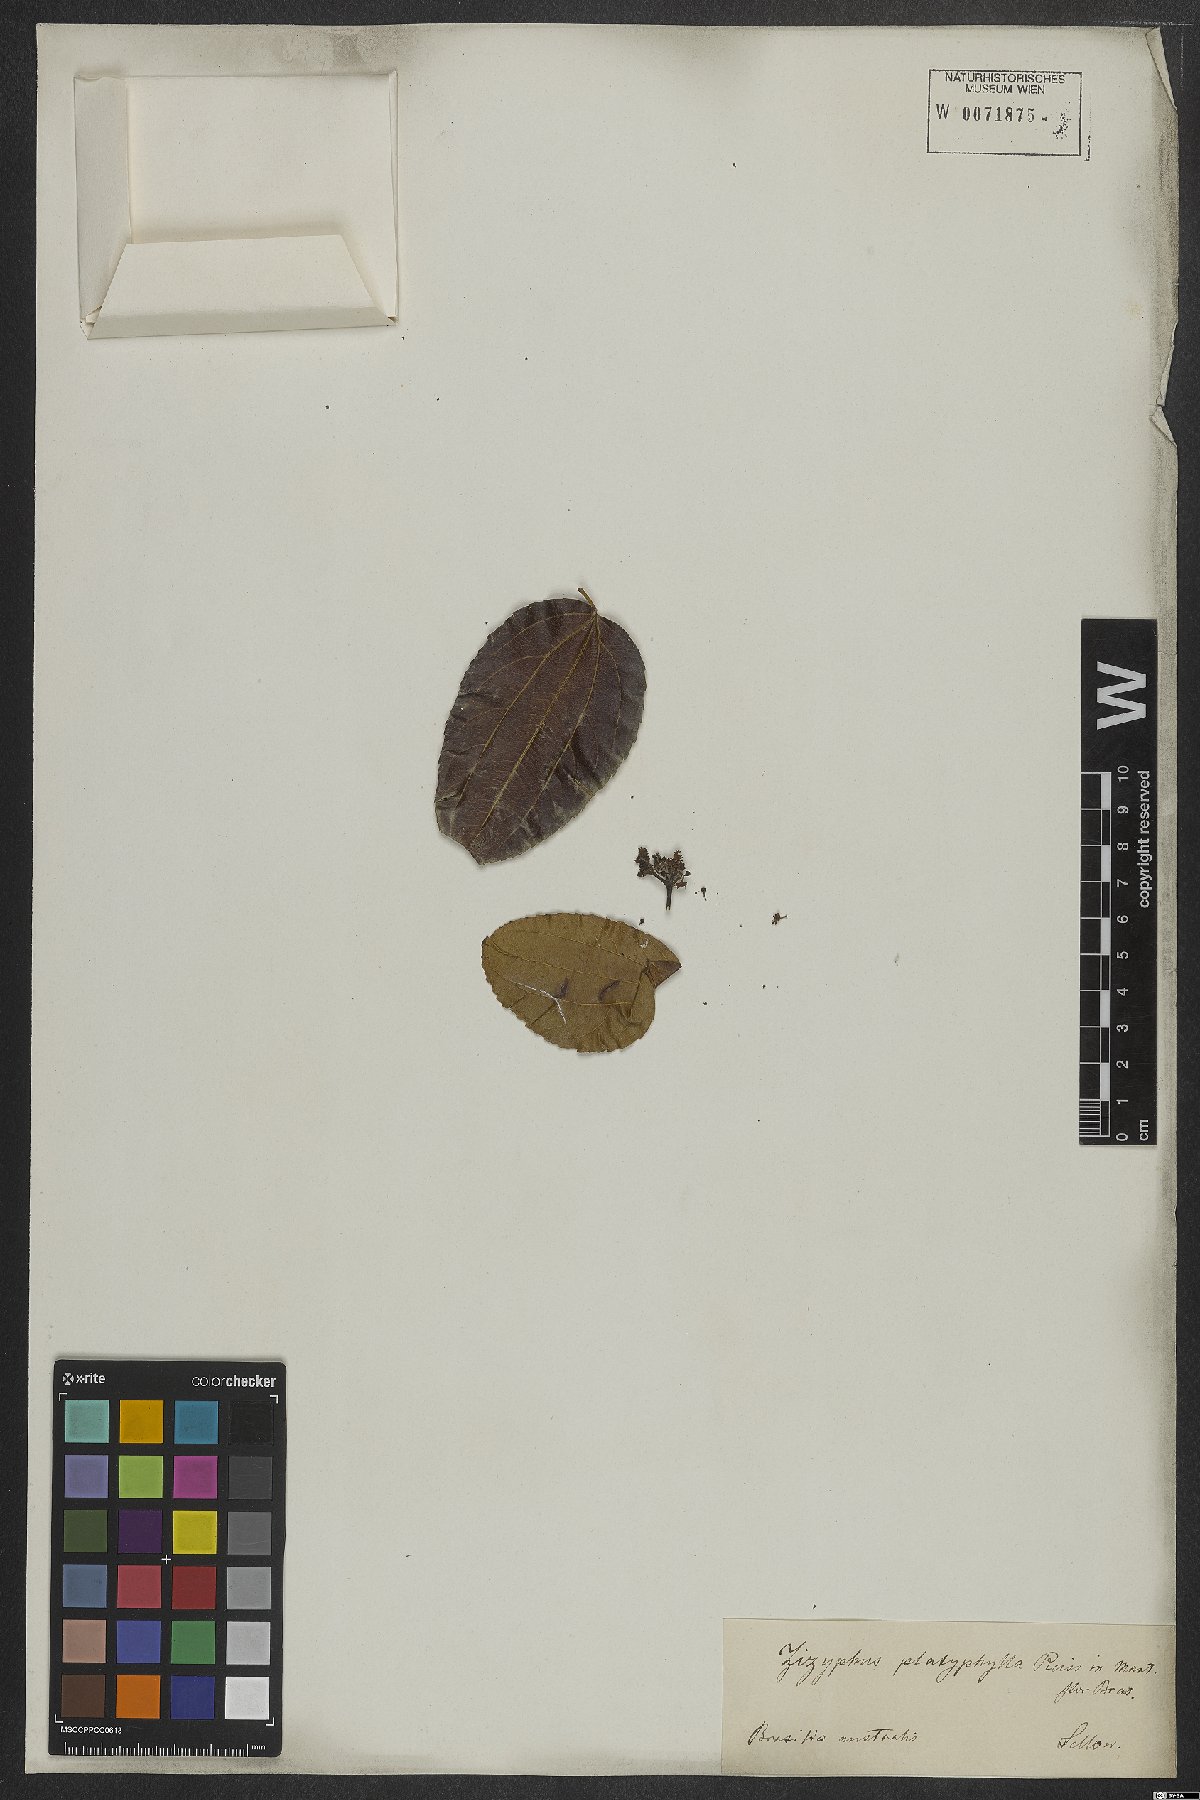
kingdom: Plantae
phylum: Tracheophyta
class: Magnoliopsida
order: Rosales
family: Rhamnaceae
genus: Sarcomphalus
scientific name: Sarcomphalus platyphyllus
